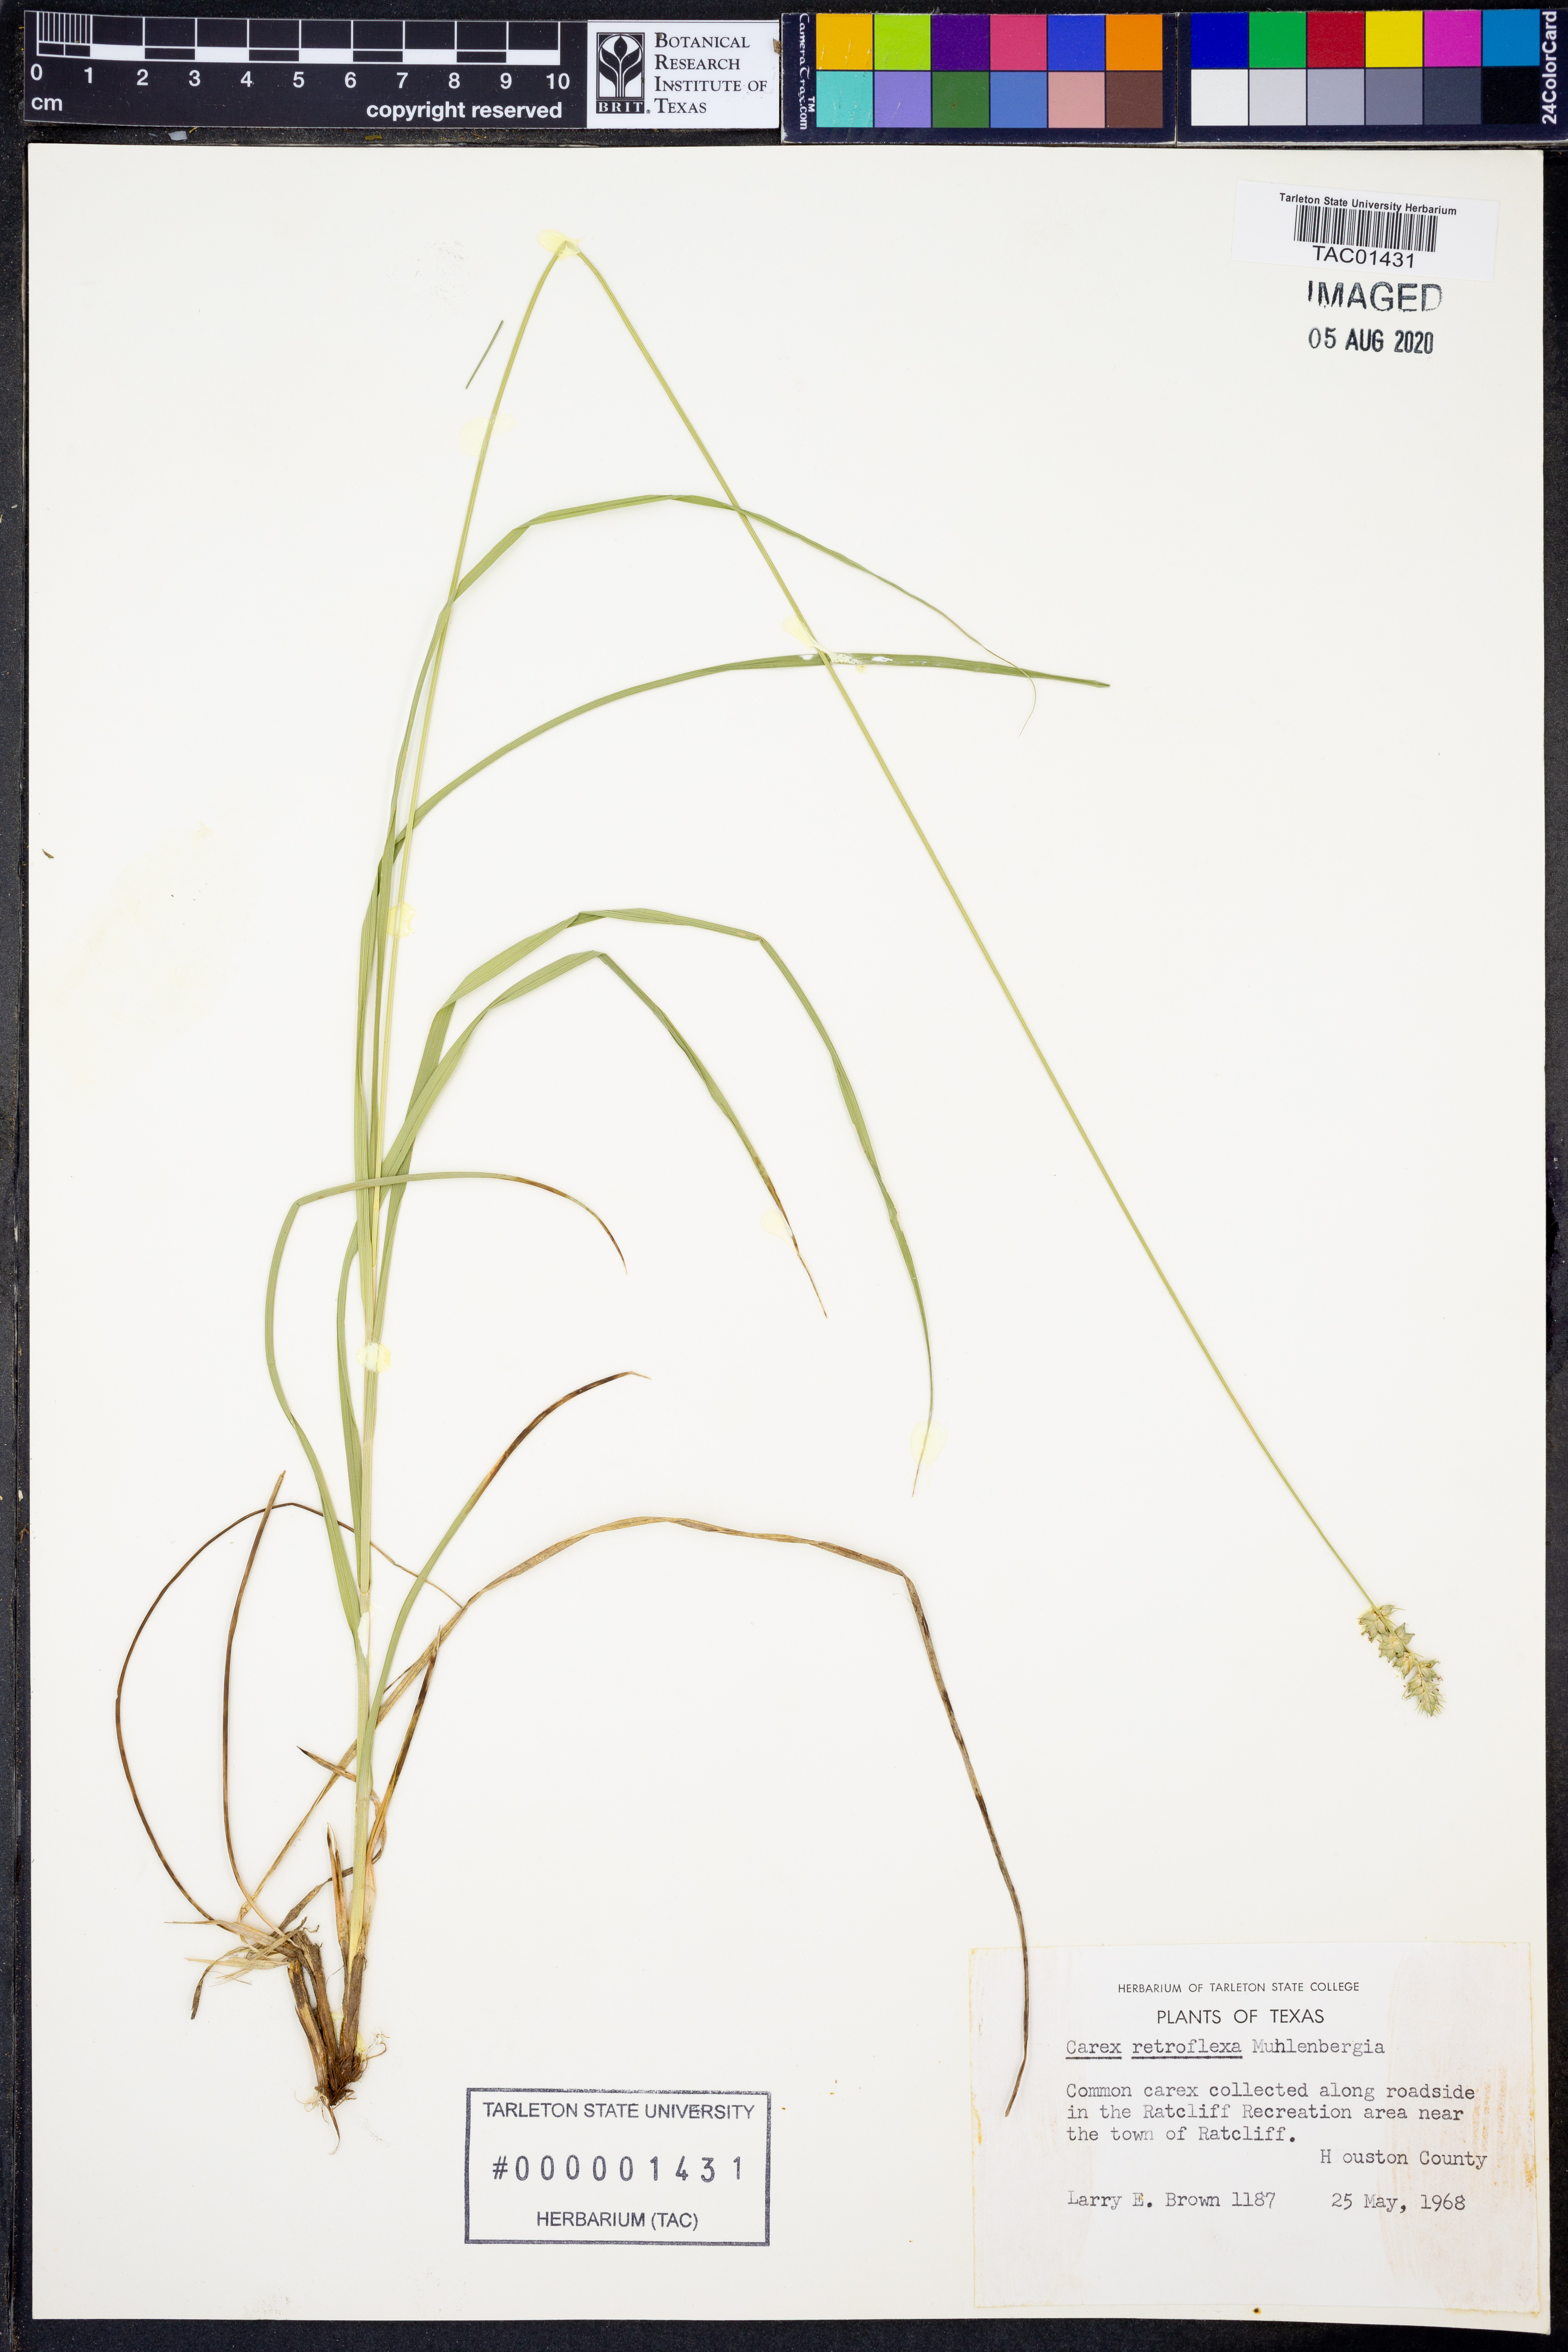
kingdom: Plantae
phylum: Tracheophyta
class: Liliopsida
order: Poales
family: Cyperaceae
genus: Carex
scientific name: Carex retroflexa
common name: Reflexed sedge
